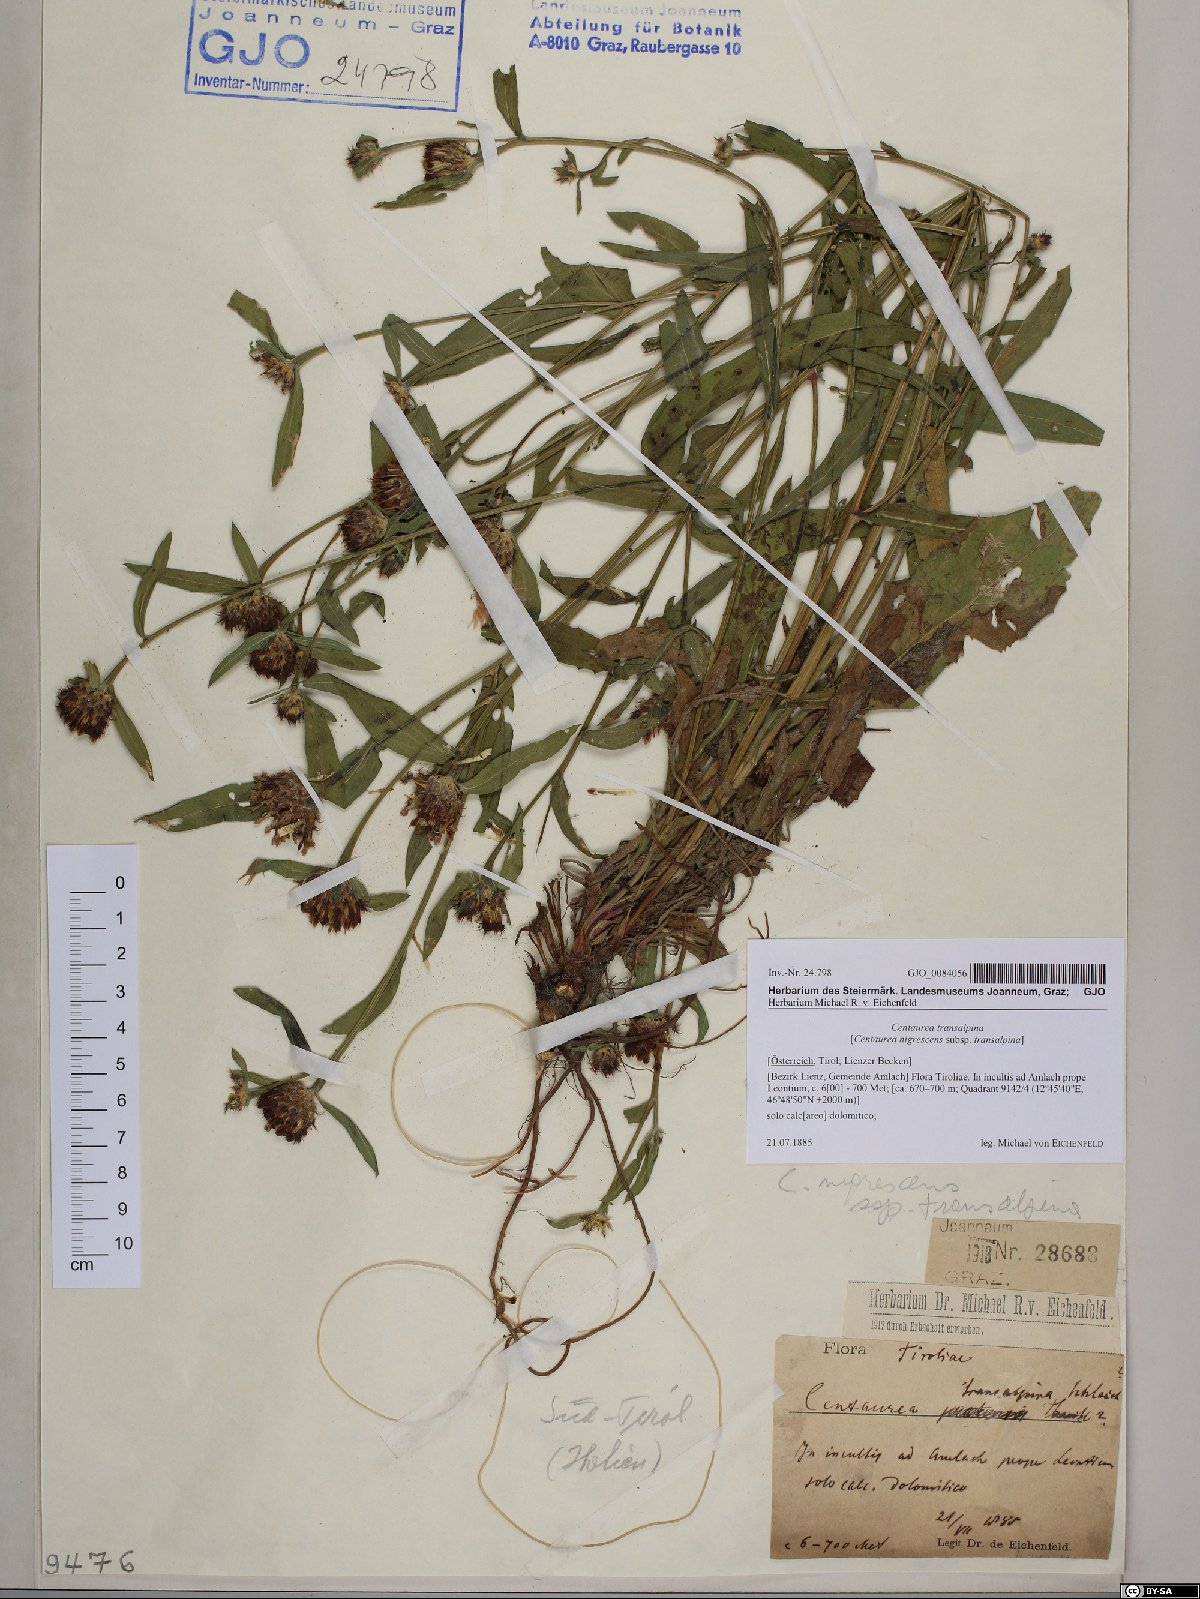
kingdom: Plantae
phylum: Tracheophyta
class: Magnoliopsida
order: Asterales
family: Asteraceae
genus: Centaurea
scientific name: Centaurea nigrescens
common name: Tyrol knapweed
